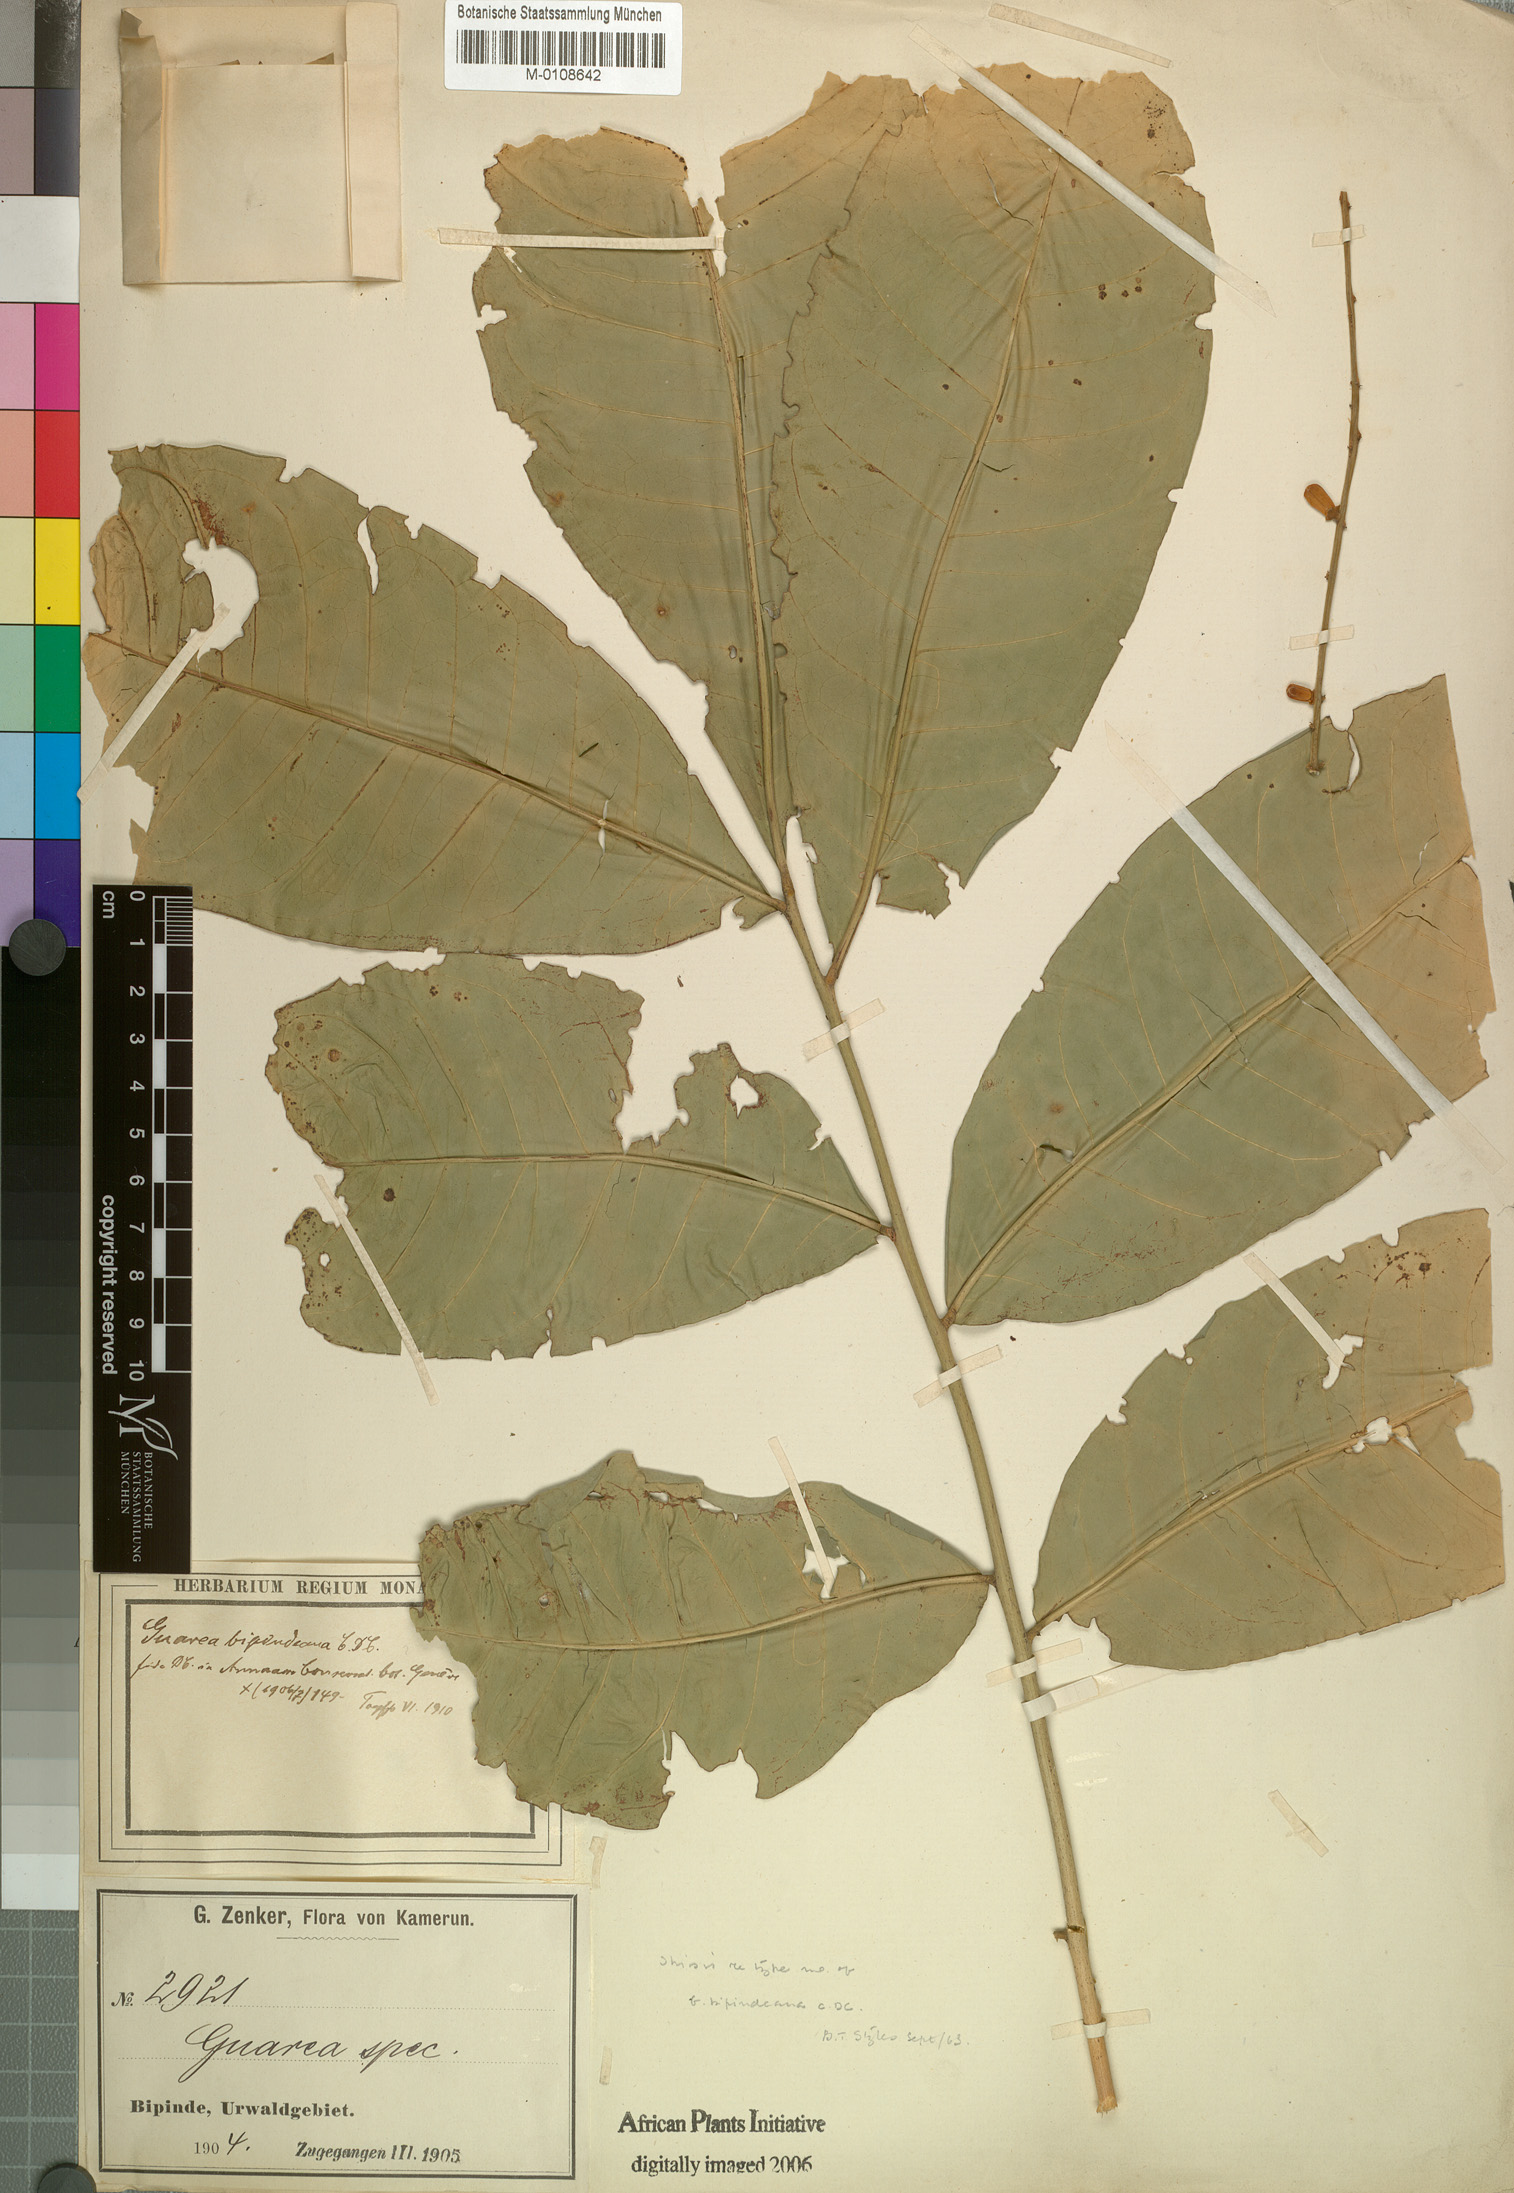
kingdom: Plantae
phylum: Tracheophyta
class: Magnoliopsida
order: Sapindales
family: Meliaceae
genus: Heckeldora
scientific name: Heckeldora zenkeri
